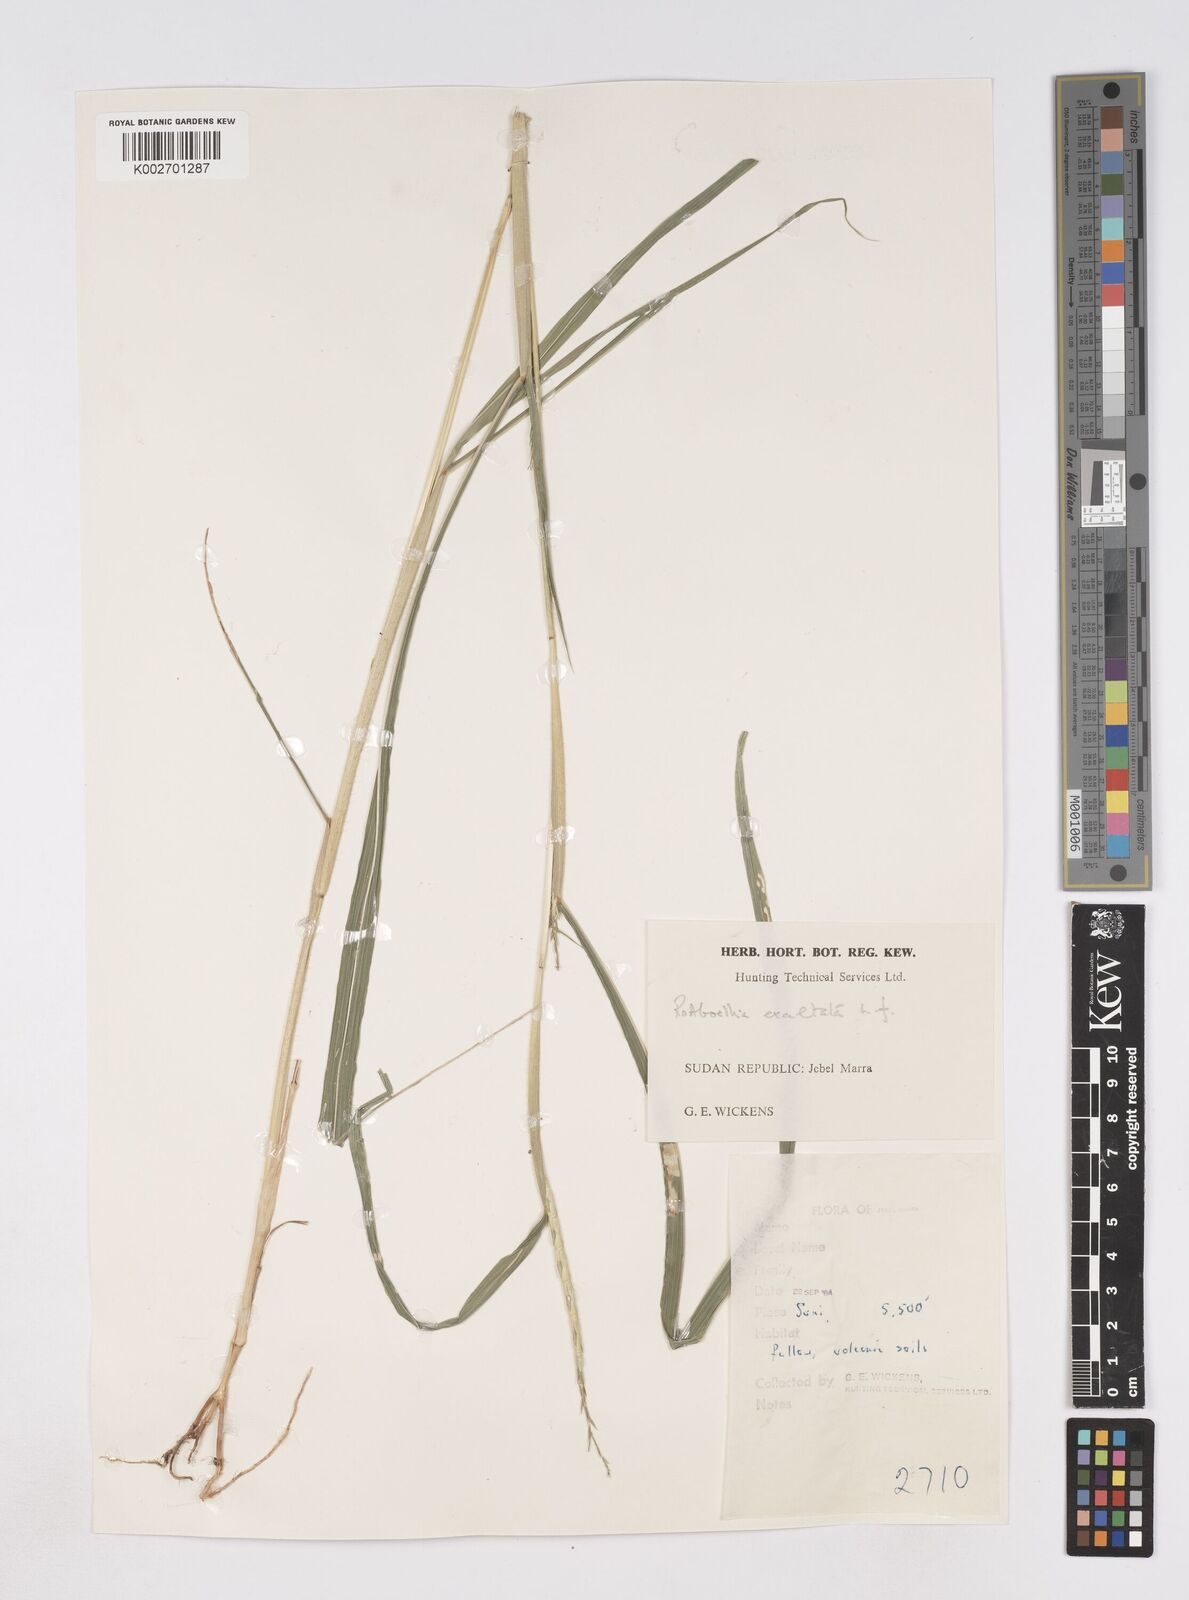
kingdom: Plantae
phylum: Tracheophyta
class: Liliopsida
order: Poales
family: Poaceae
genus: Rottboellia
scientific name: Rottboellia cochinchinensis
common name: Itchgrass
